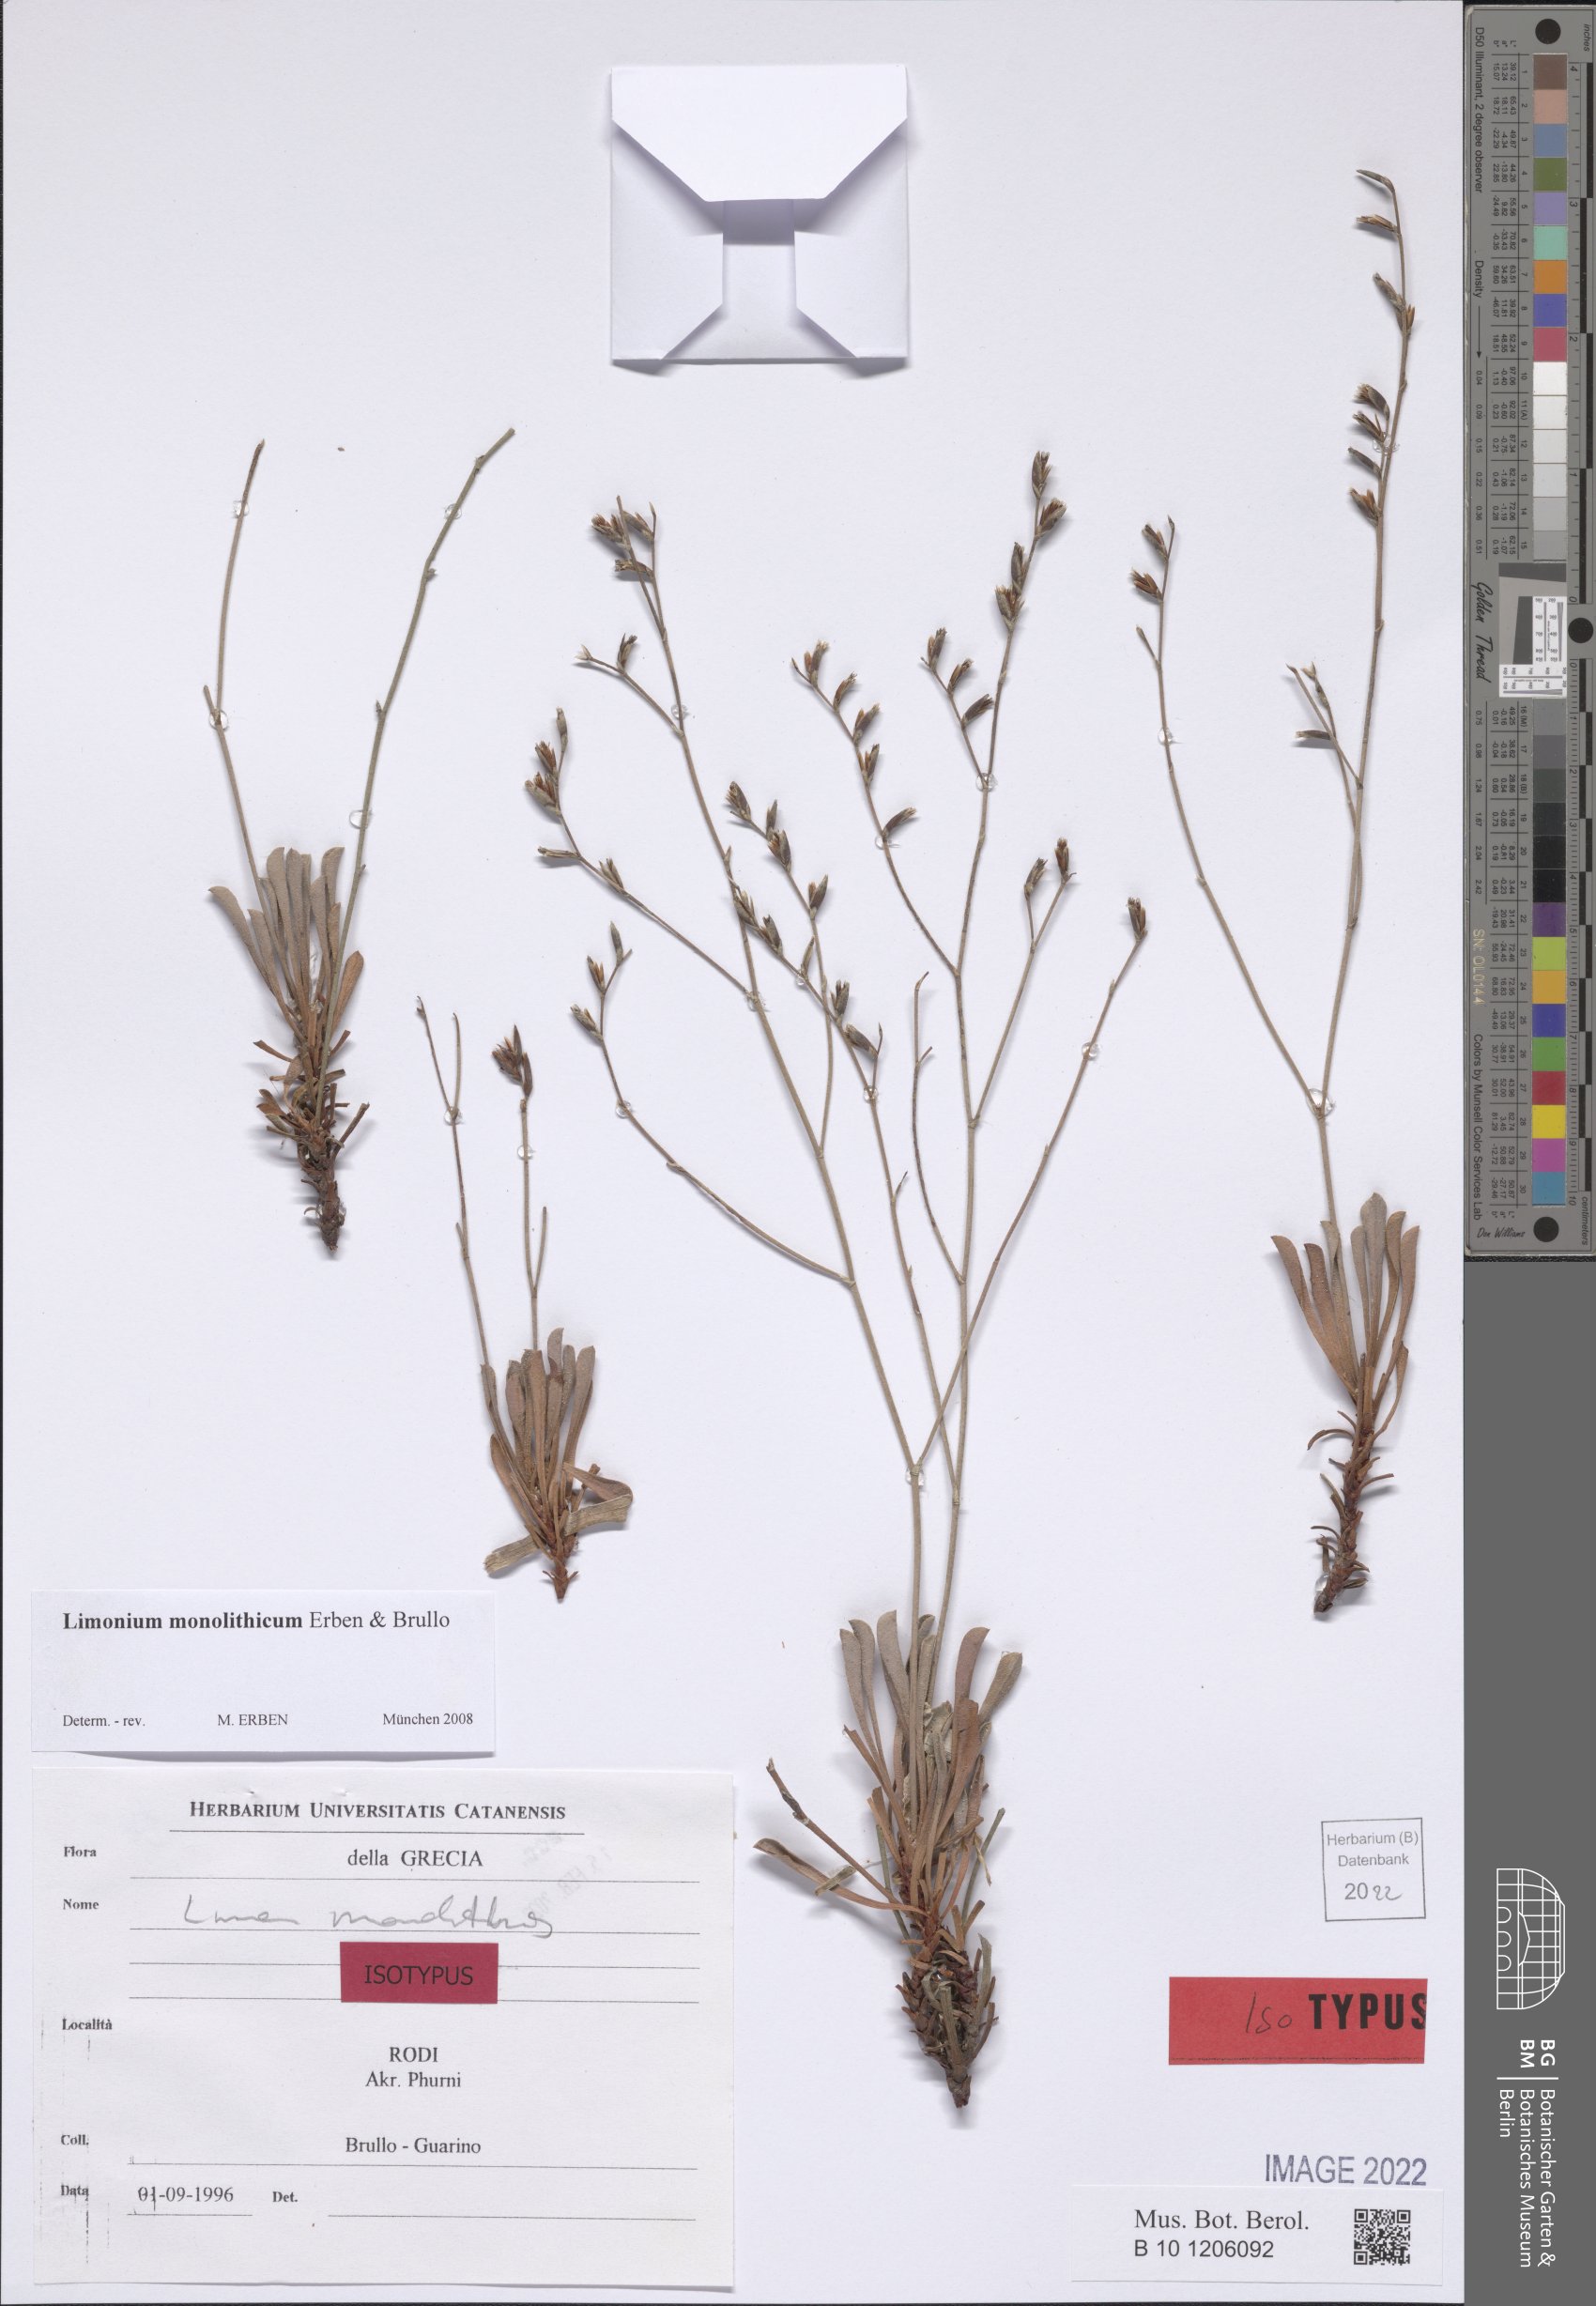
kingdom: Plantae
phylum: Tracheophyta
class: Magnoliopsida
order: Caryophyllales
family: Plumbaginaceae
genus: Limonium
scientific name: Limonium monolithicum
